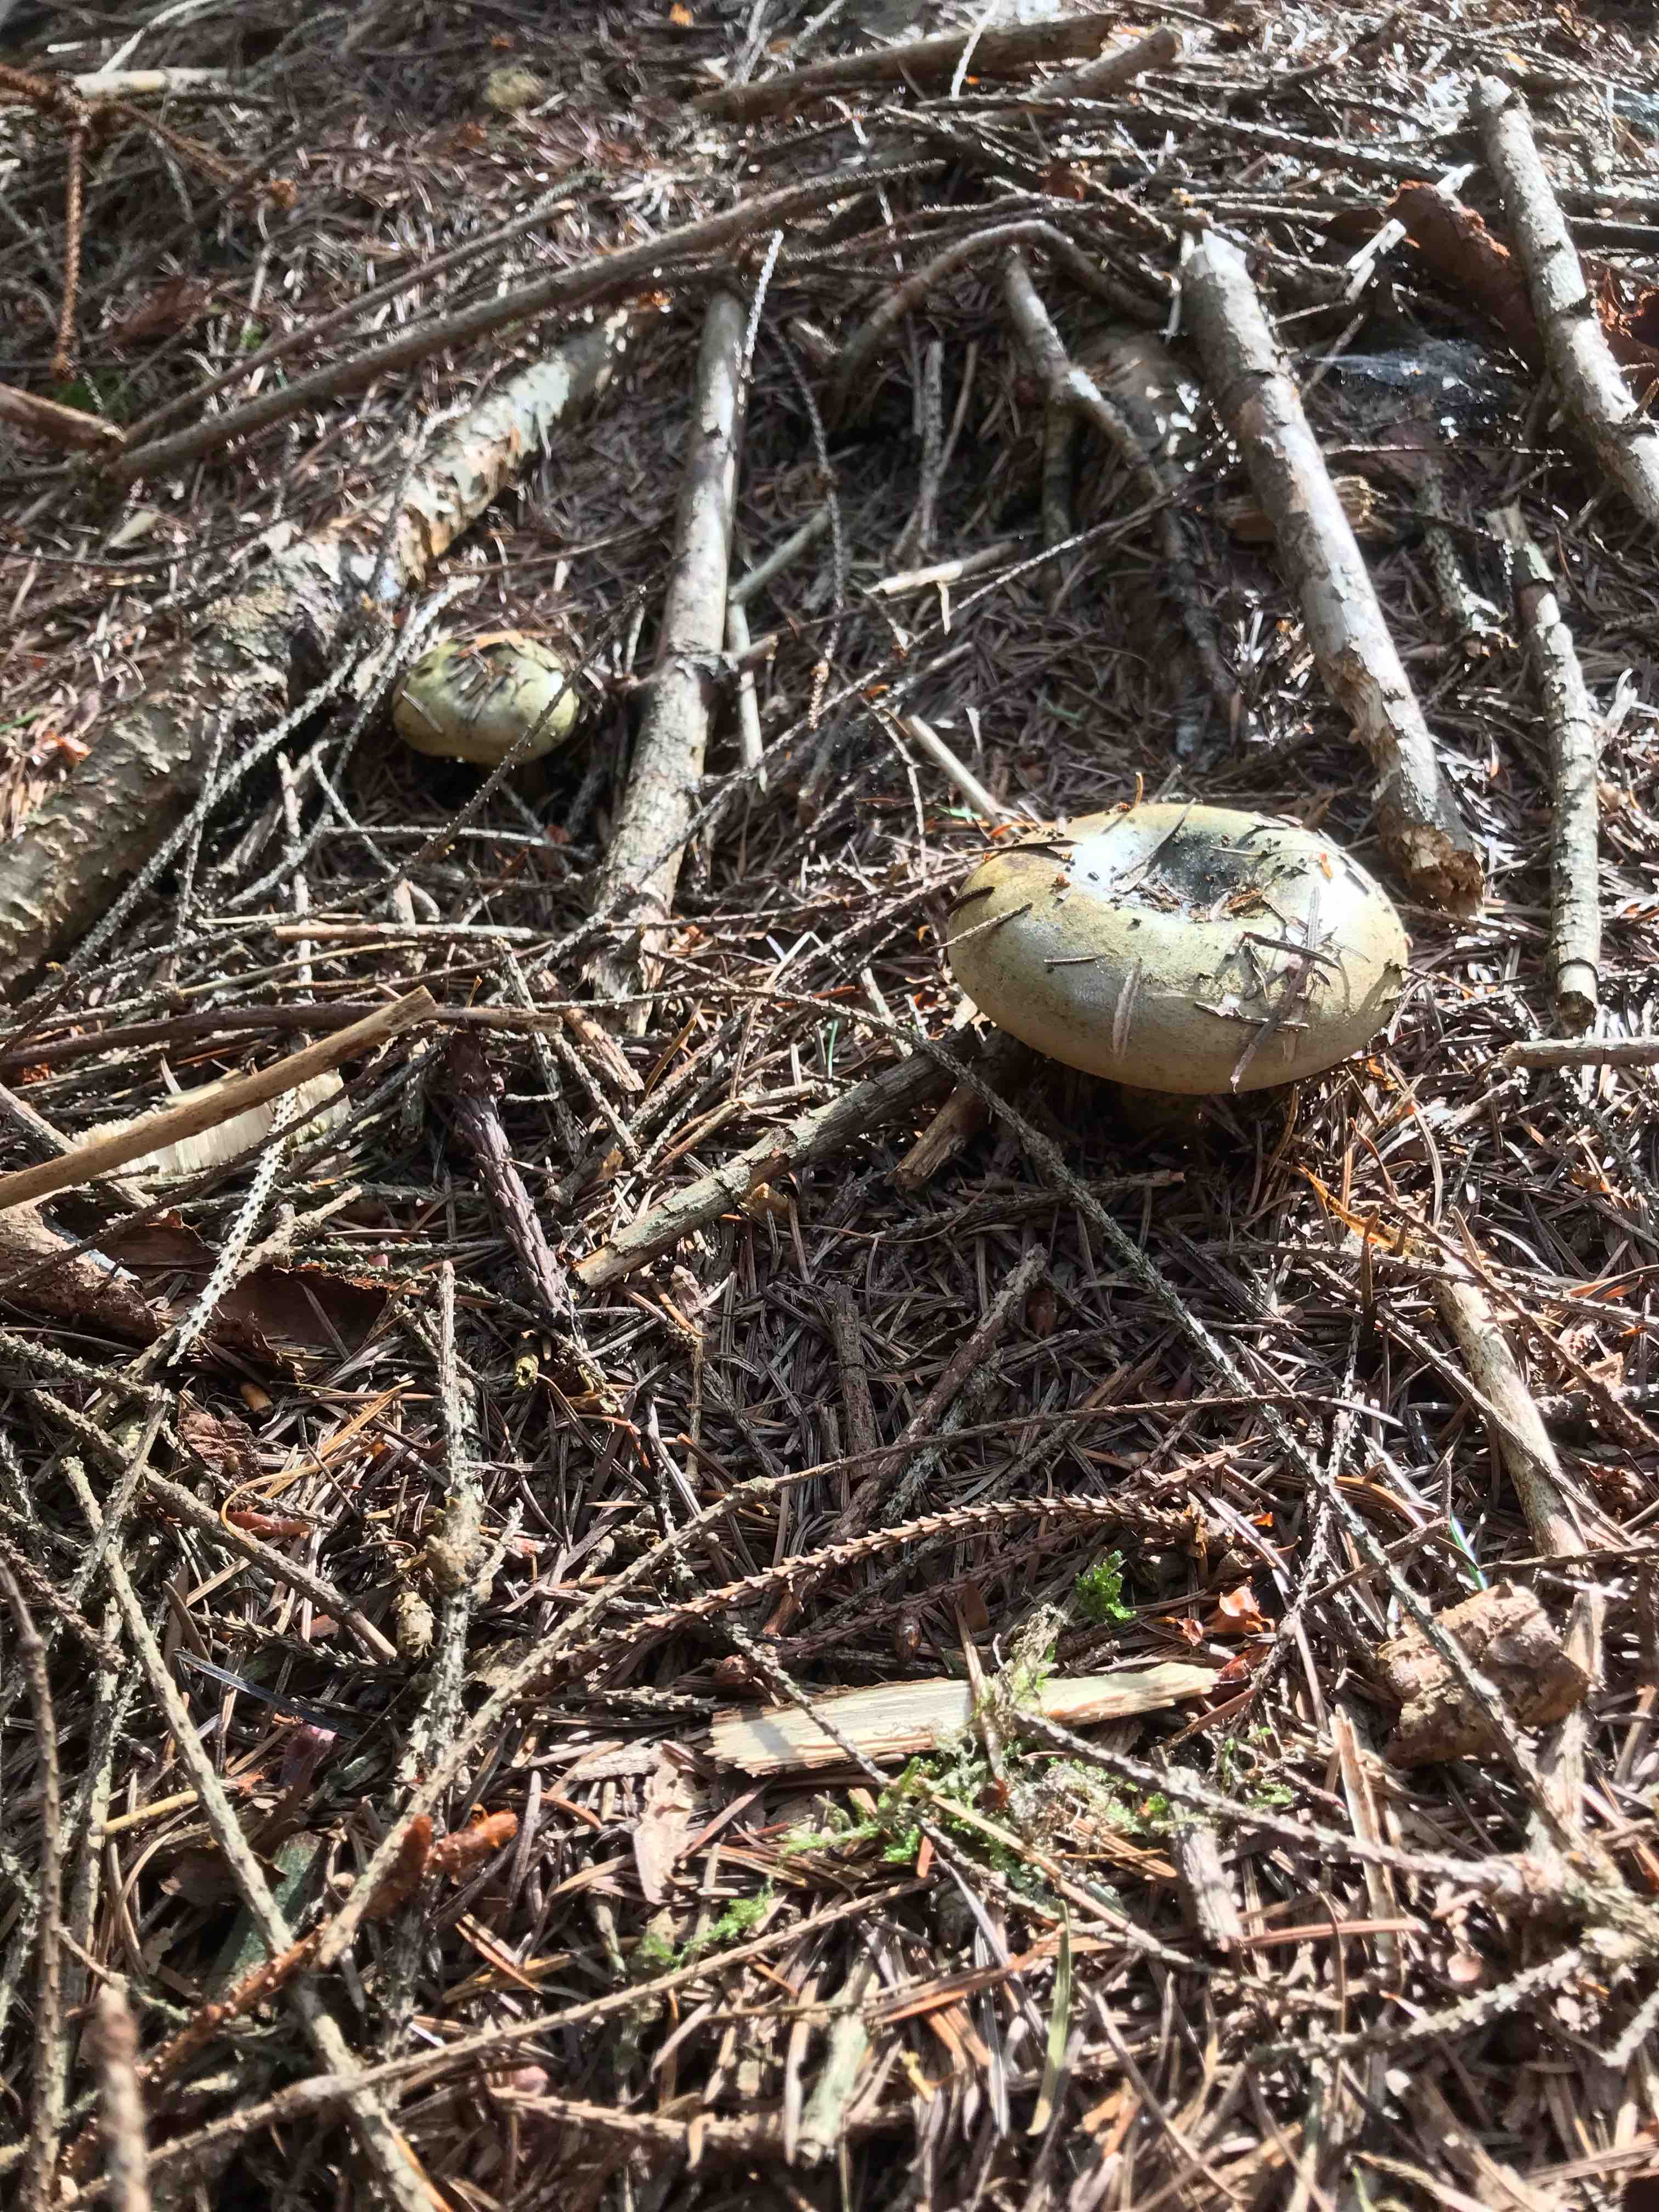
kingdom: Fungi
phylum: Basidiomycota
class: Agaricomycetes
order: Russulales
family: Russulaceae
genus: Lactarius
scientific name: Lactarius necator
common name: manddraber-mælkehat
